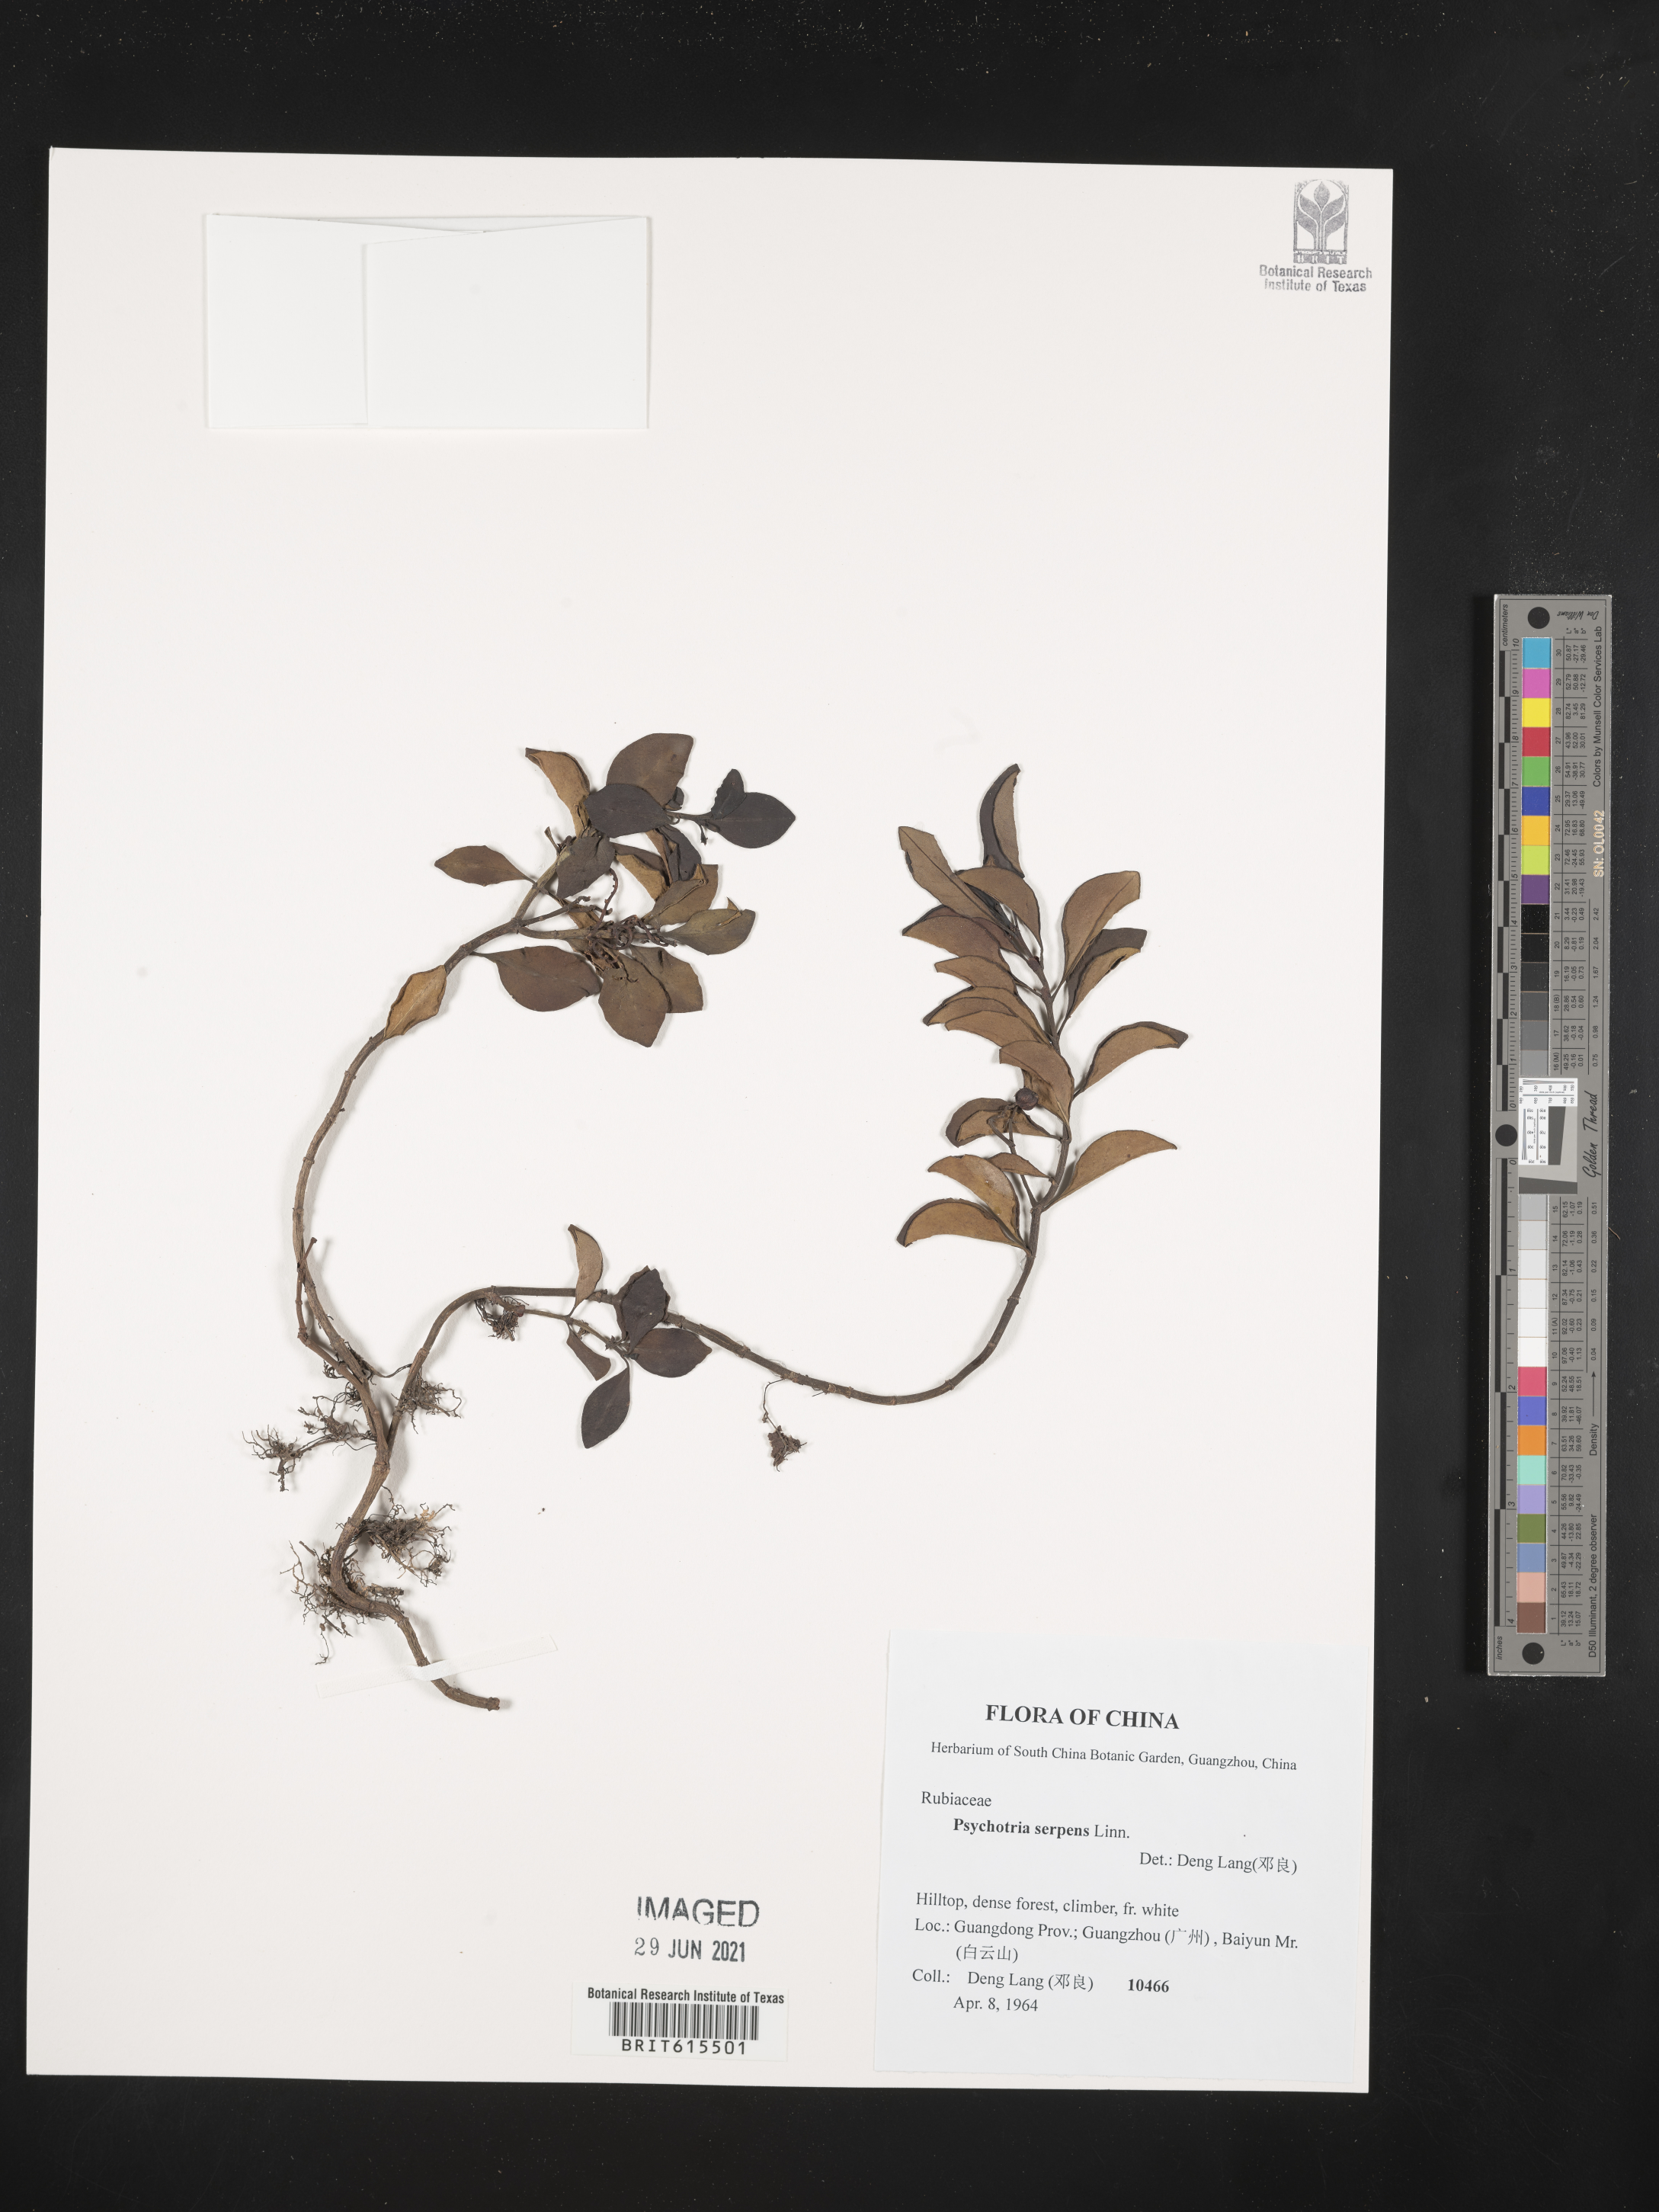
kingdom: Plantae
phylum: Tracheophyta
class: Magnoliopsida
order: Gentianales
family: Rubiaceae
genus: Psychotria
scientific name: Psychotria serpens
